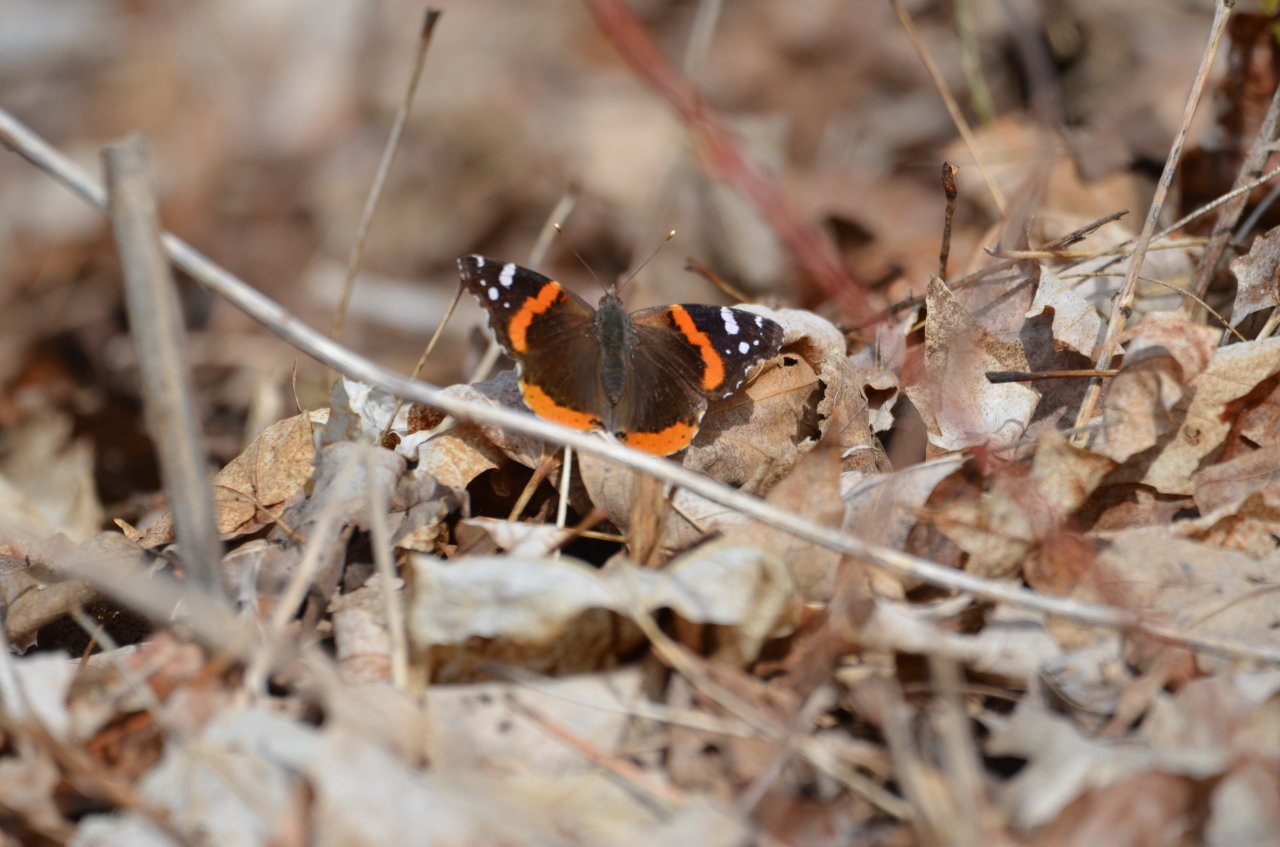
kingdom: Animalia
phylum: Arthropoda
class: Insecta
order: Lepidoptera
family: Nymphalidae
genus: Vanessa
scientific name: Vanessa atalanta
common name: Red Admiral
